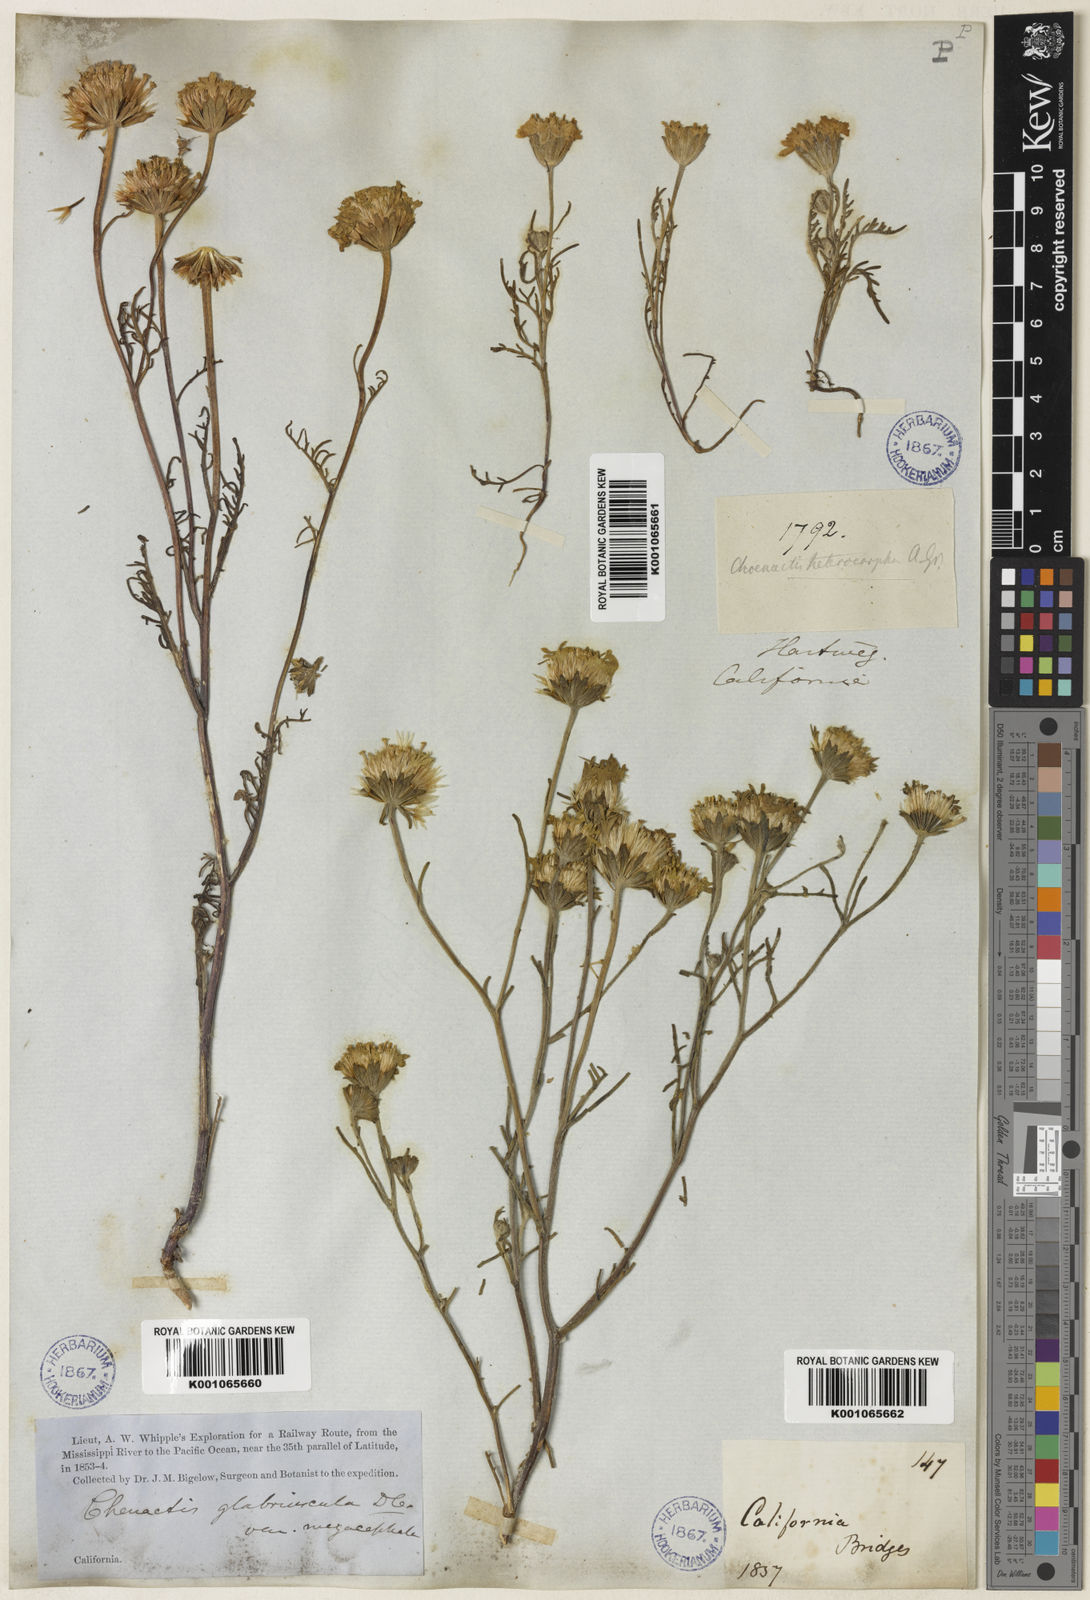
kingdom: Plantae
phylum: Tracheophyta
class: Magnoliopsida
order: Asterales
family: Asteraceae
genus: Chaenactis
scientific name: Chaenactis glabriuscula
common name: Yellow pincushion
